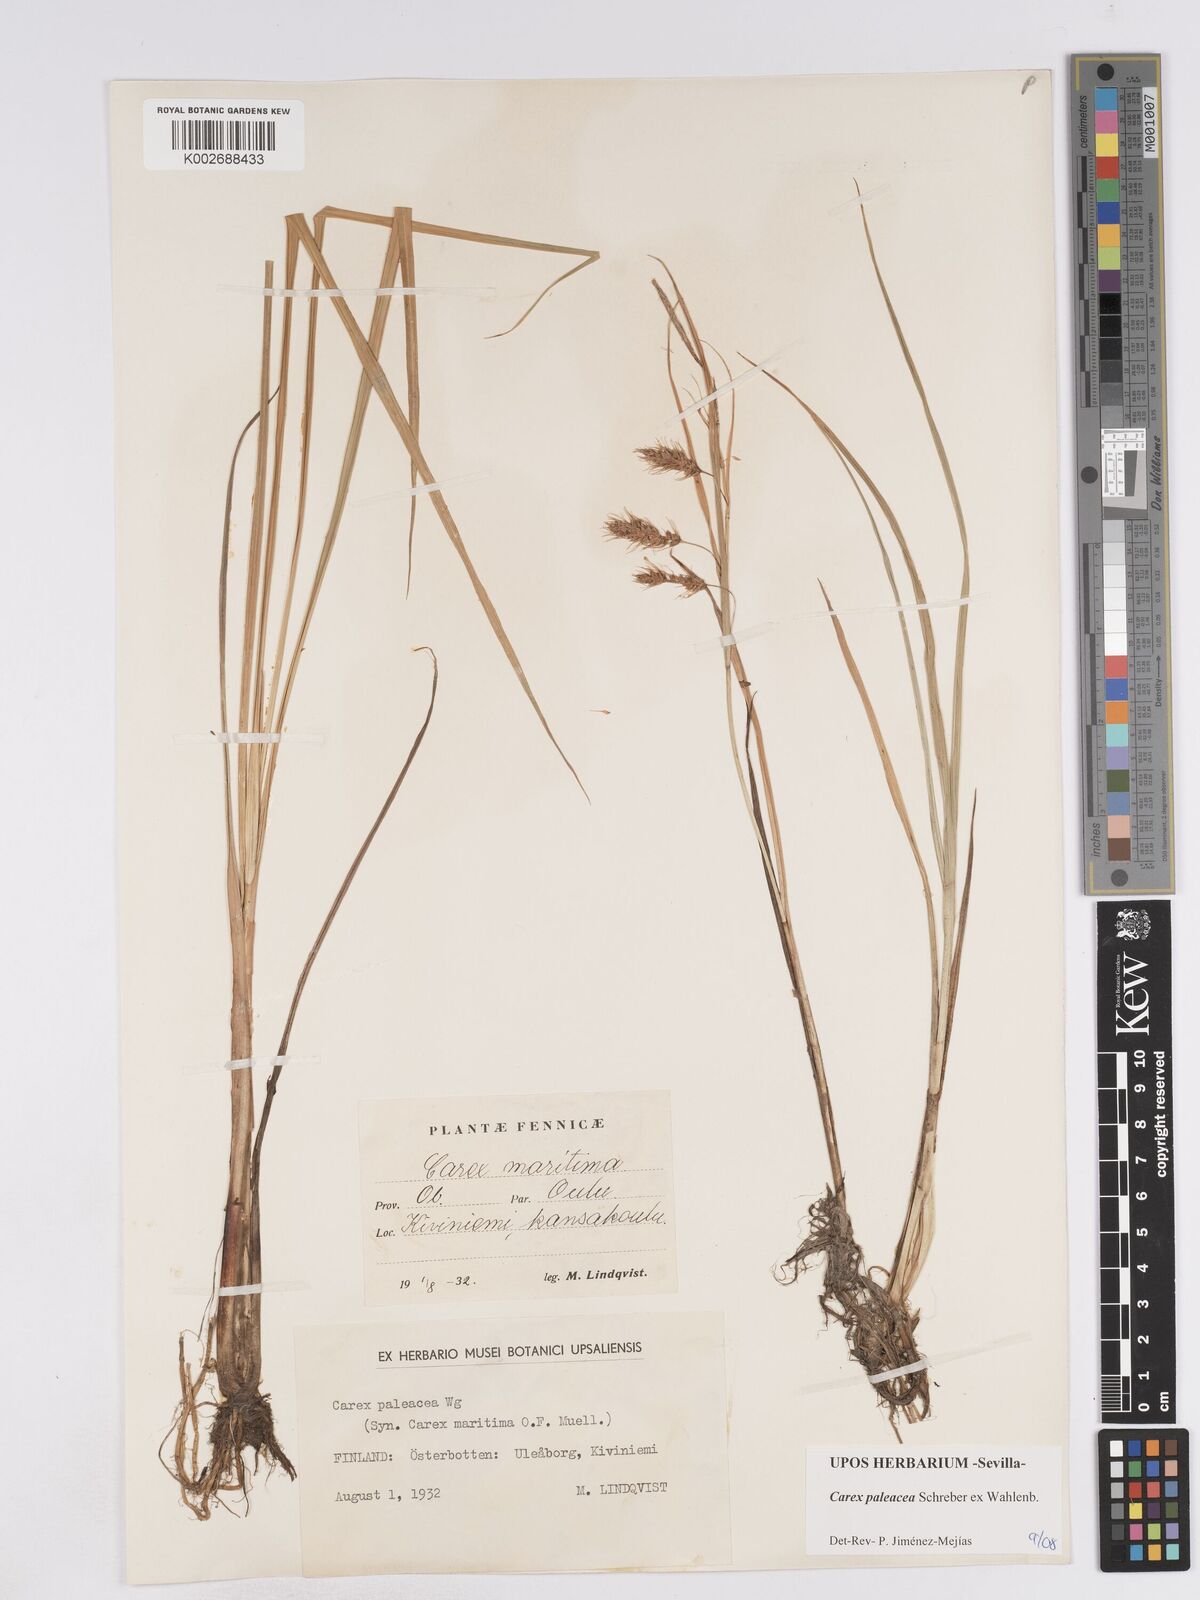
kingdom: Plantae
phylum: Tracheophyta
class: Liliopsida
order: Poales
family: Cyperaceae
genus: Carex
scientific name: Carex paleacea
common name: Chaffy sedge
